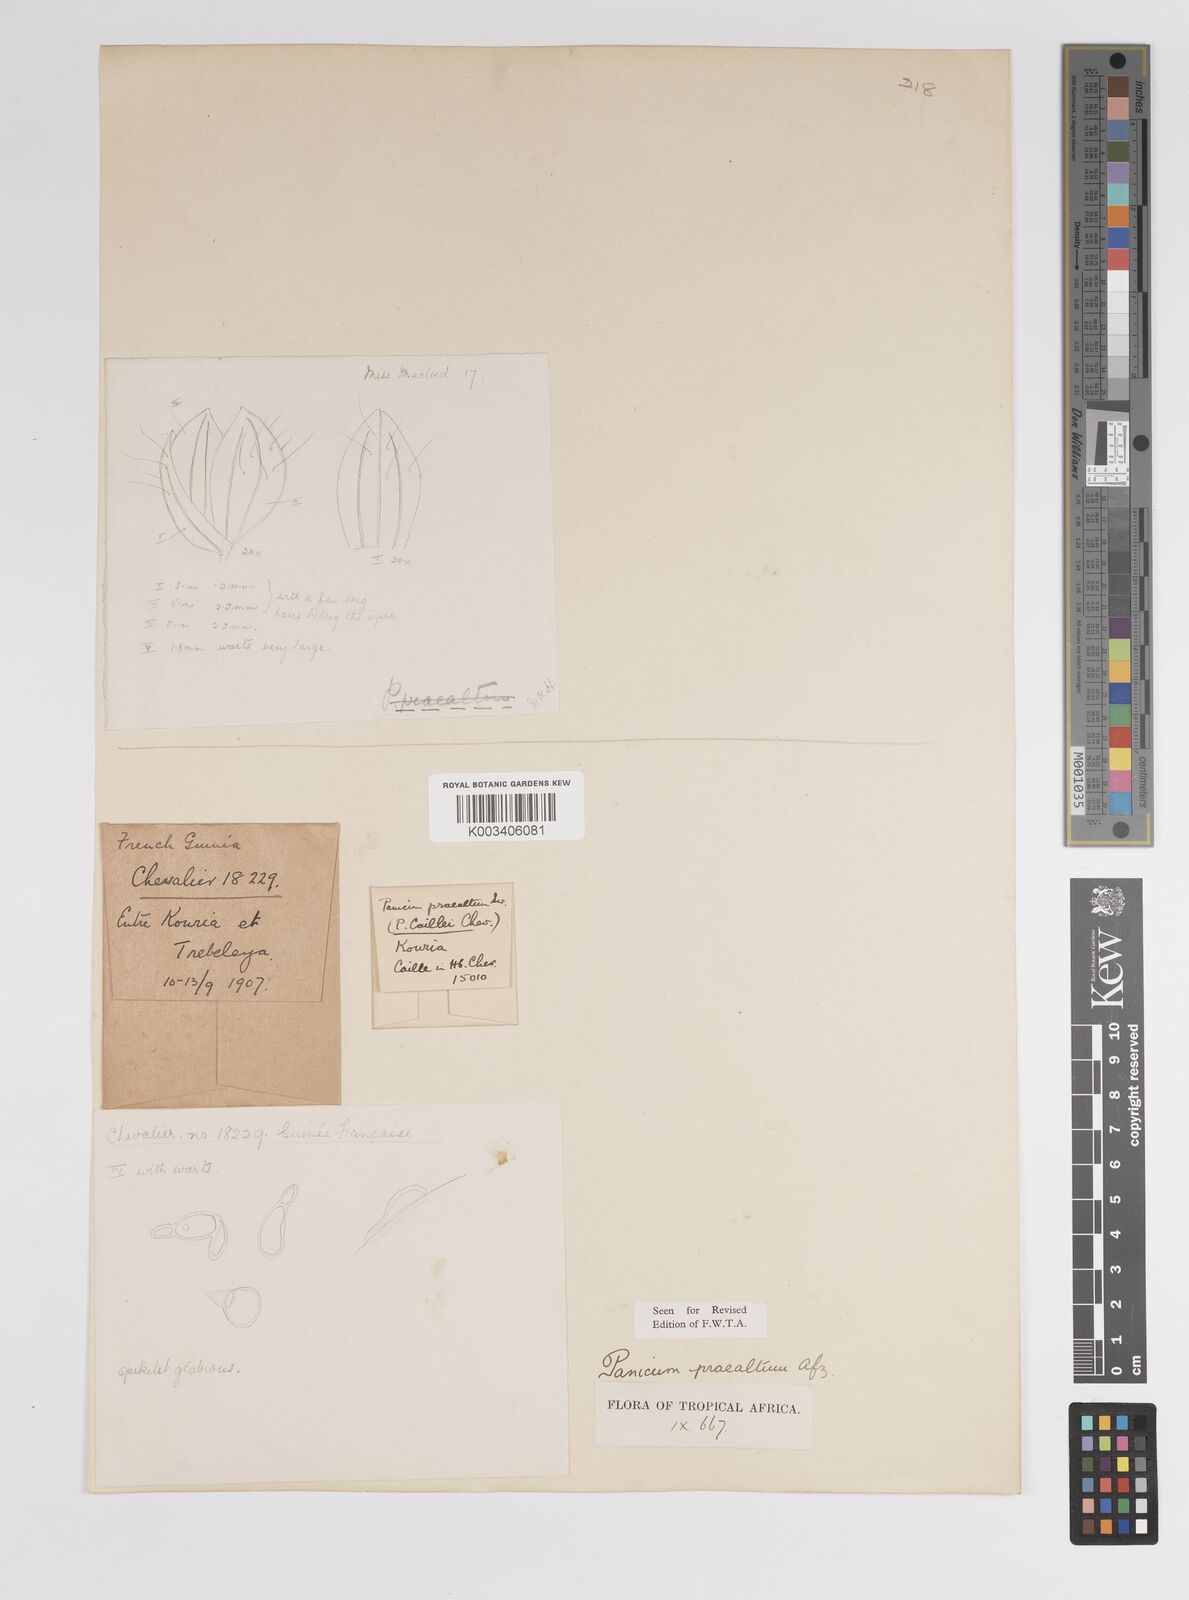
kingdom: Plantae
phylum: Tracheophyta
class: Liliopsida
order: Poales
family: Poaceae
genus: Trichanthecium
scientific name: Trichanthecium praealtum
